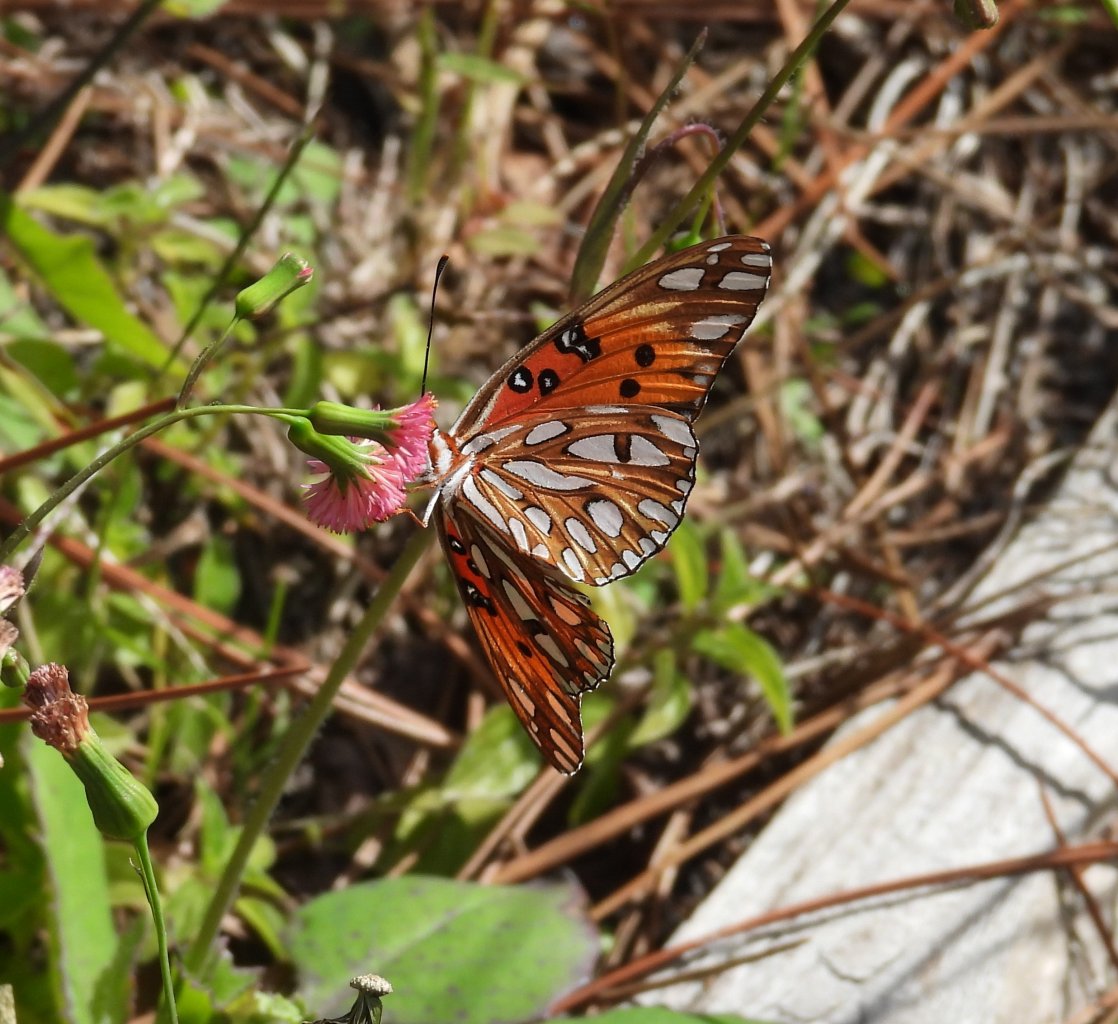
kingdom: Animalia
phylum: Arthropoda
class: Insecta
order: Lepidoptera
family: Nymphalidae
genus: Dione
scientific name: Dione vanillae
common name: Gulf Fritillary
